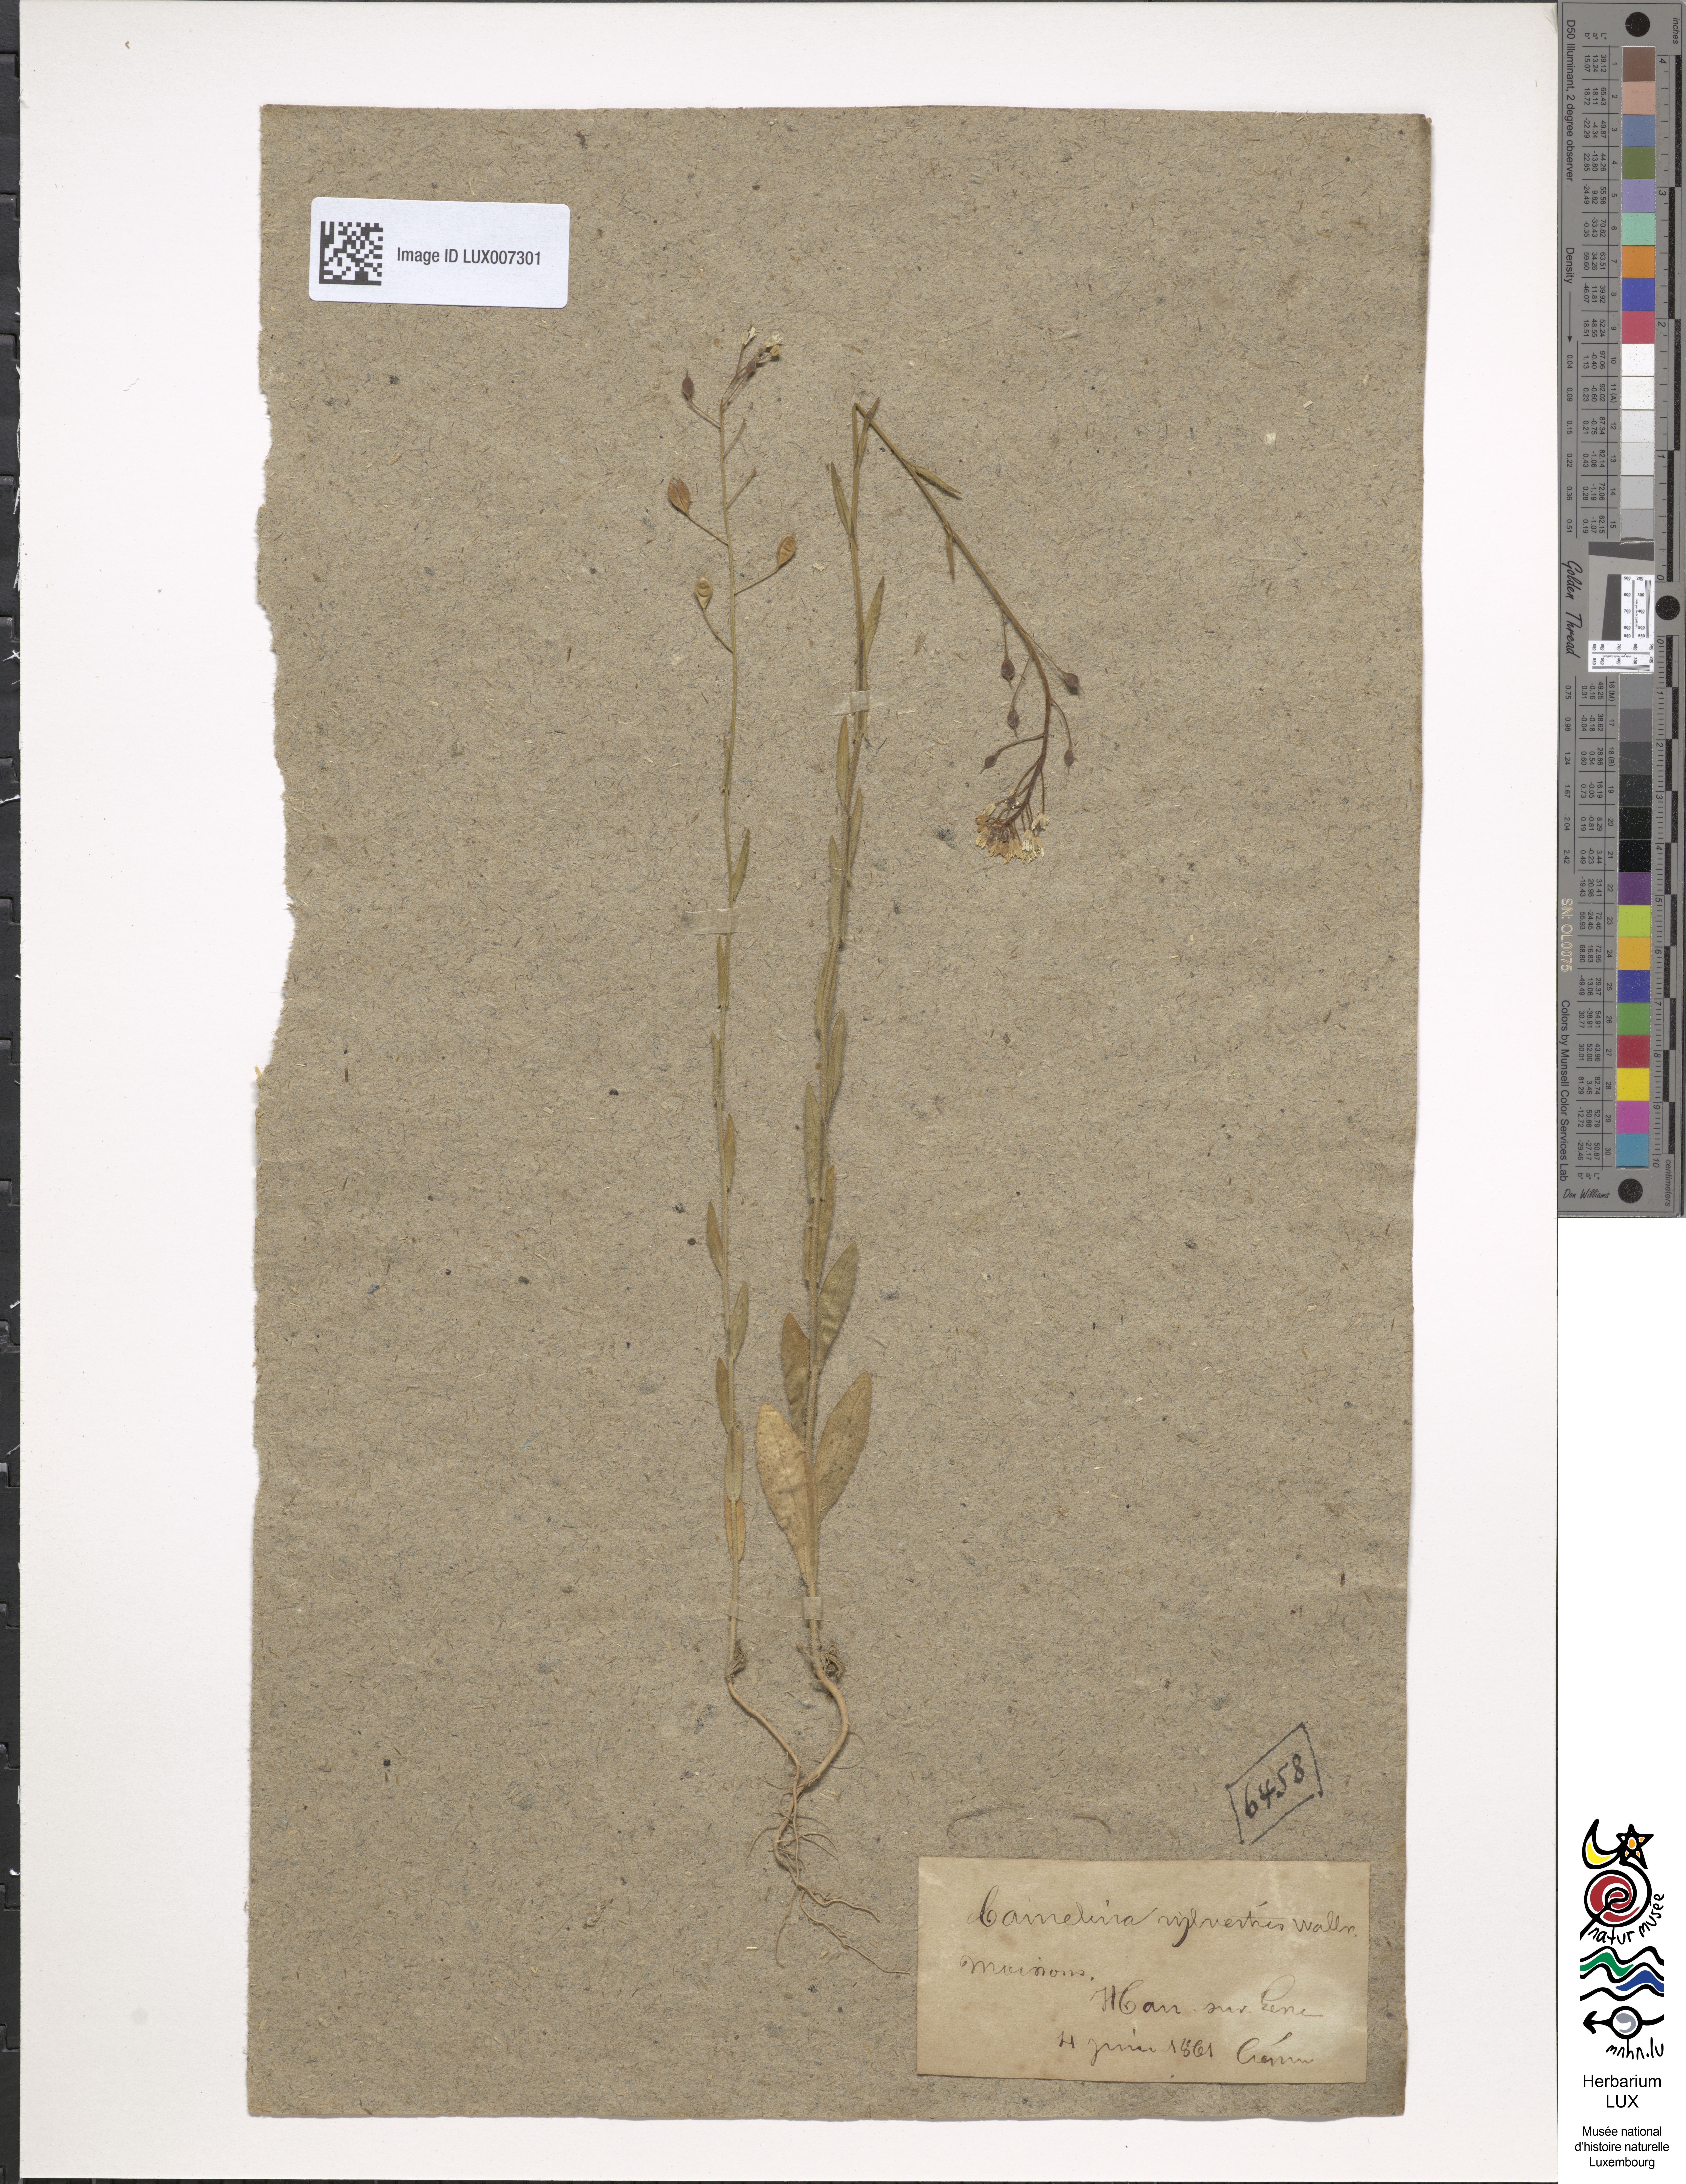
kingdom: Plantae
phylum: Tracheophyta
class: Magnoliopsida
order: Brassicales
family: Brassicaceae
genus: Camelina
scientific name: Camelina microcarpa
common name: Lesser gold-of-pleasure
